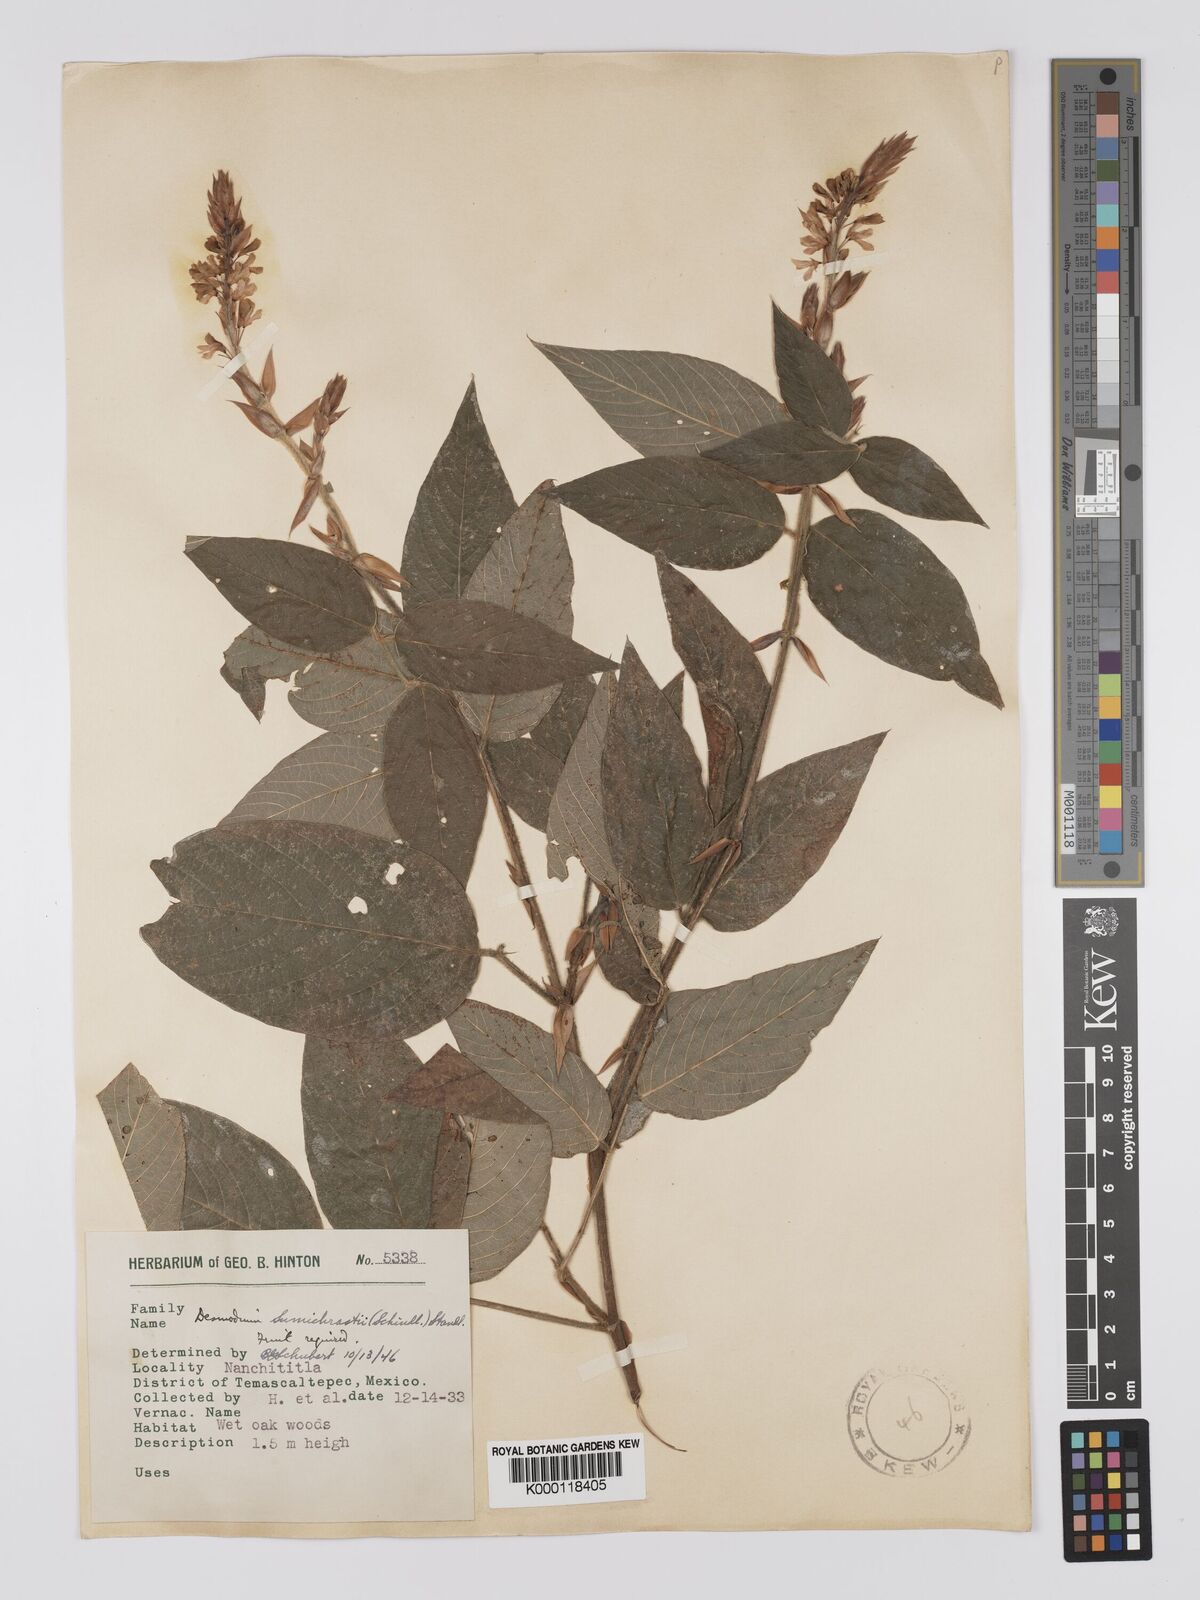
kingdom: Plantae
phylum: Tracheophyta
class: Magnoliopsida
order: Fabales
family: Fabaceae
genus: Desmodium
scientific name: Desmodium sumichrastii
